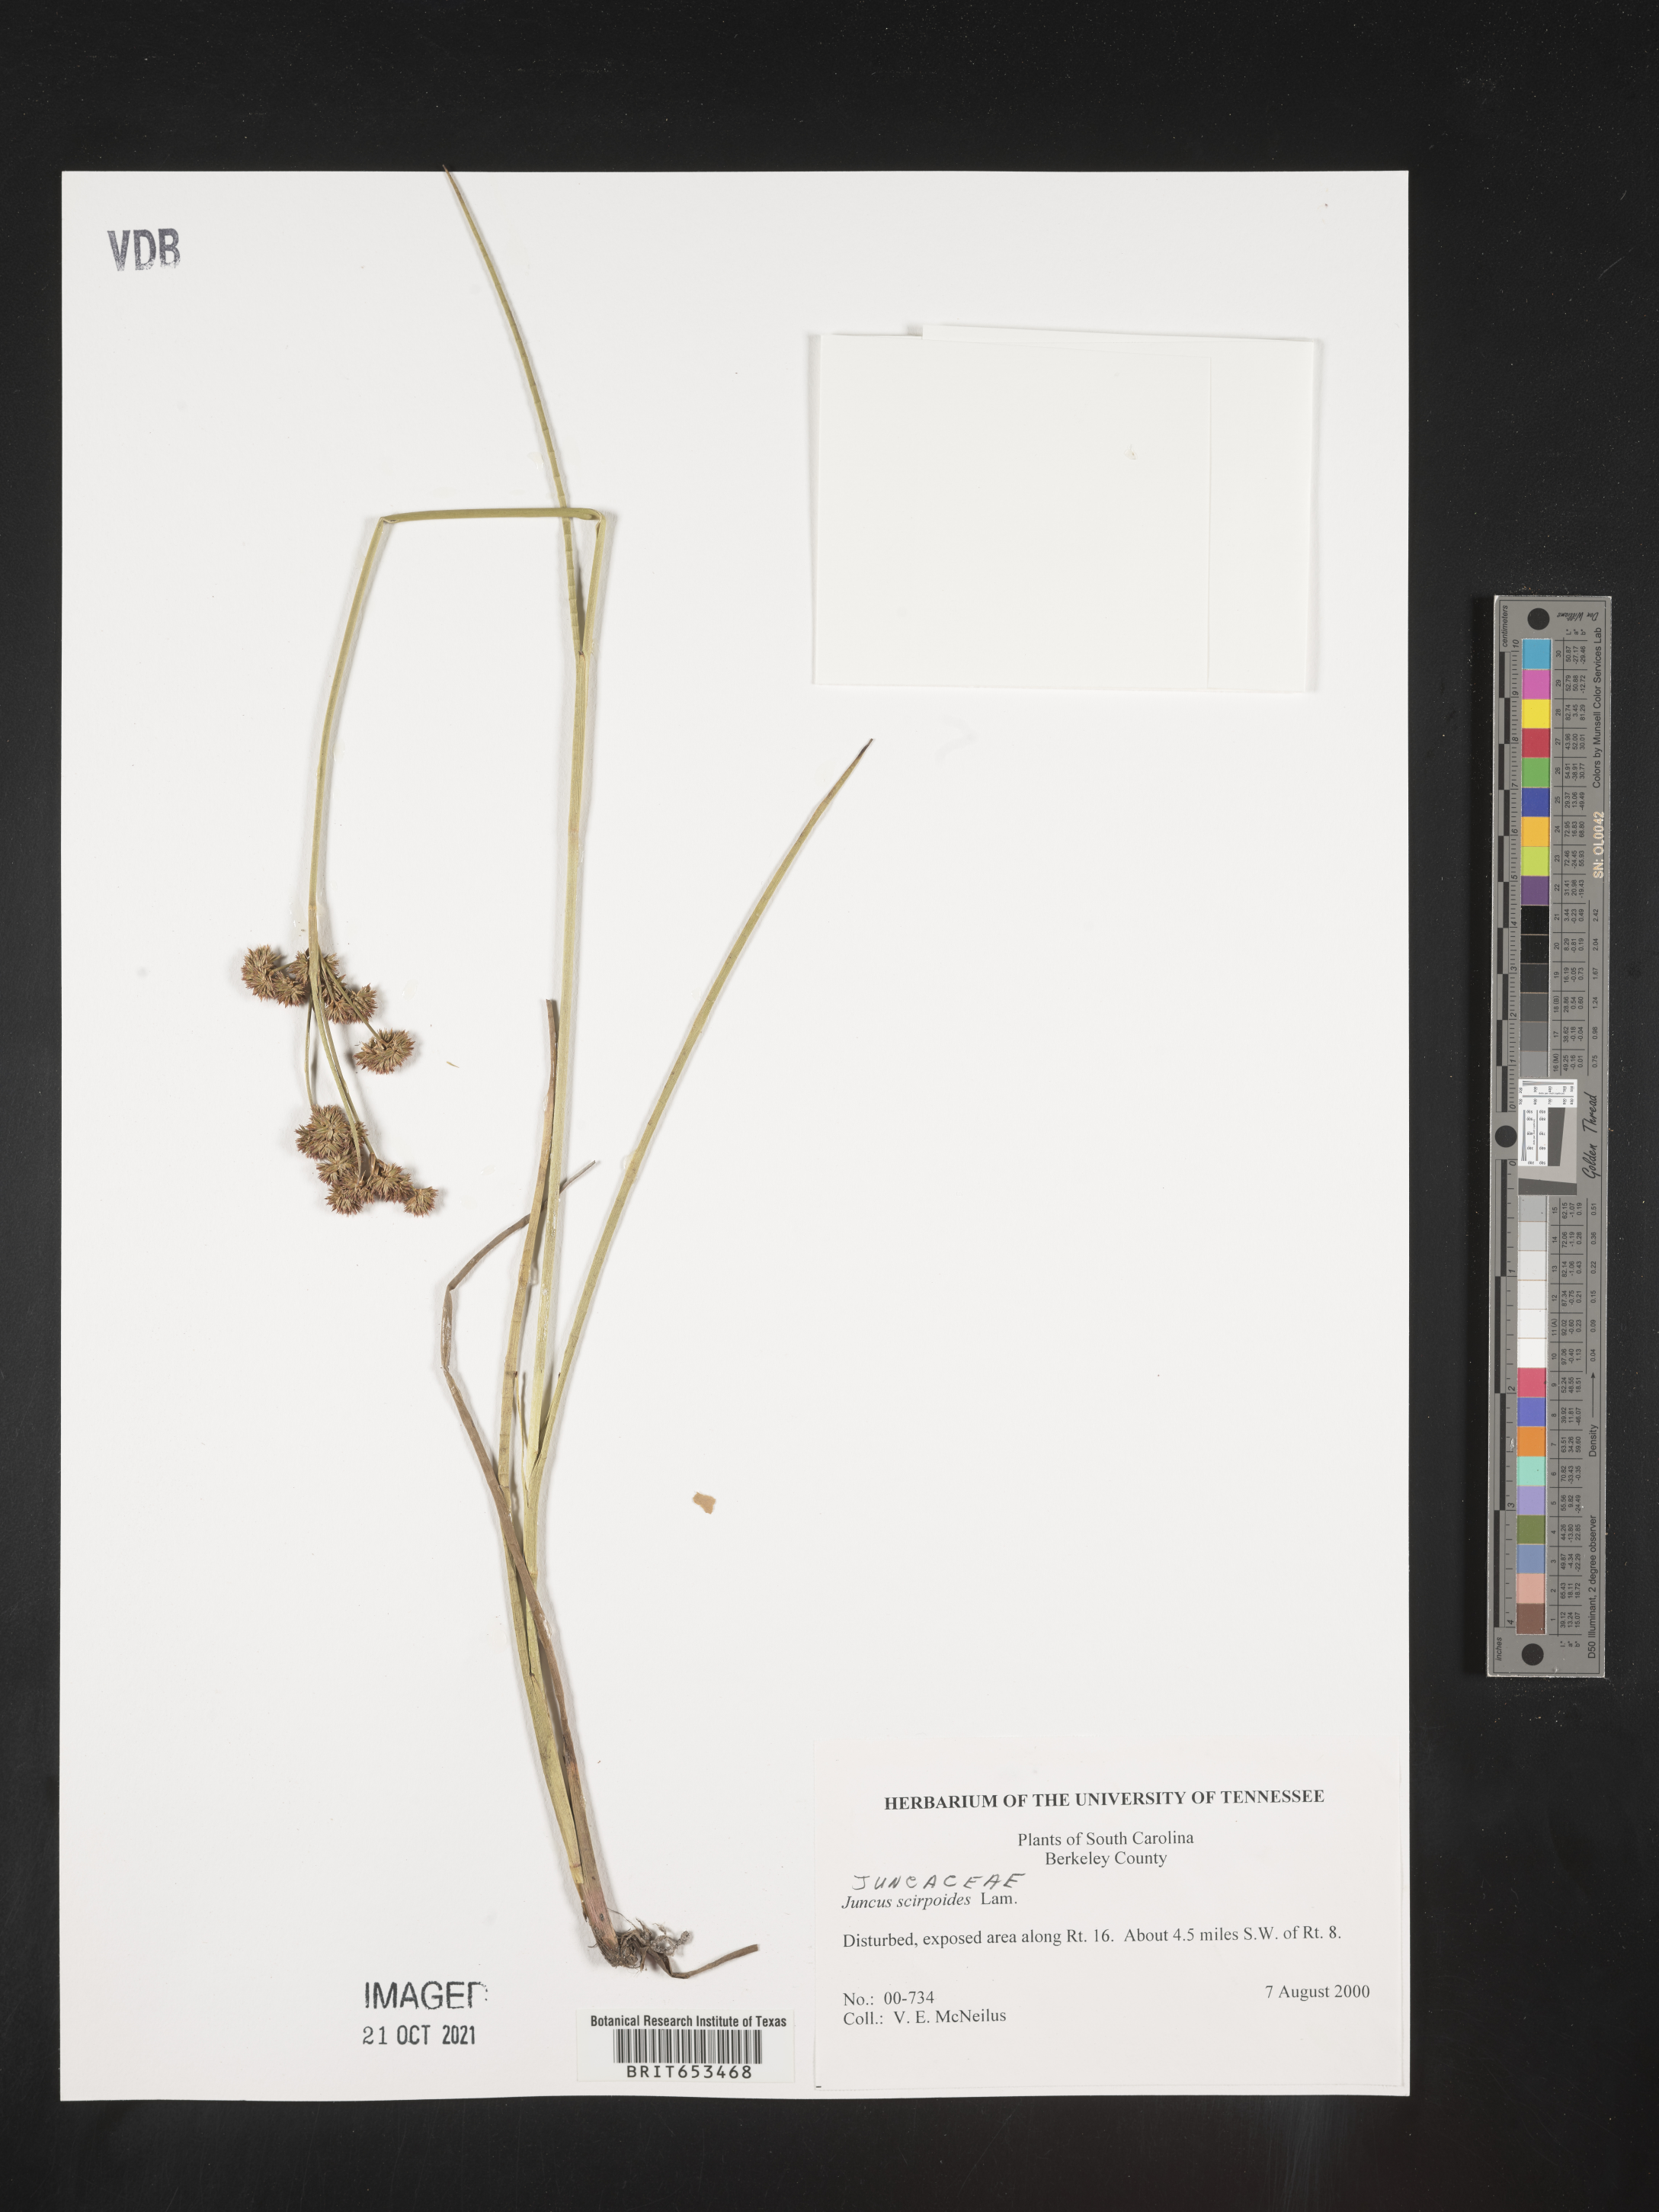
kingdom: Plantae
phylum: Tracheophyta
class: Liliopsida
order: Poales
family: Juncaceae
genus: Juncus
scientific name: Juncus scirpoides
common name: Needlepod rush
